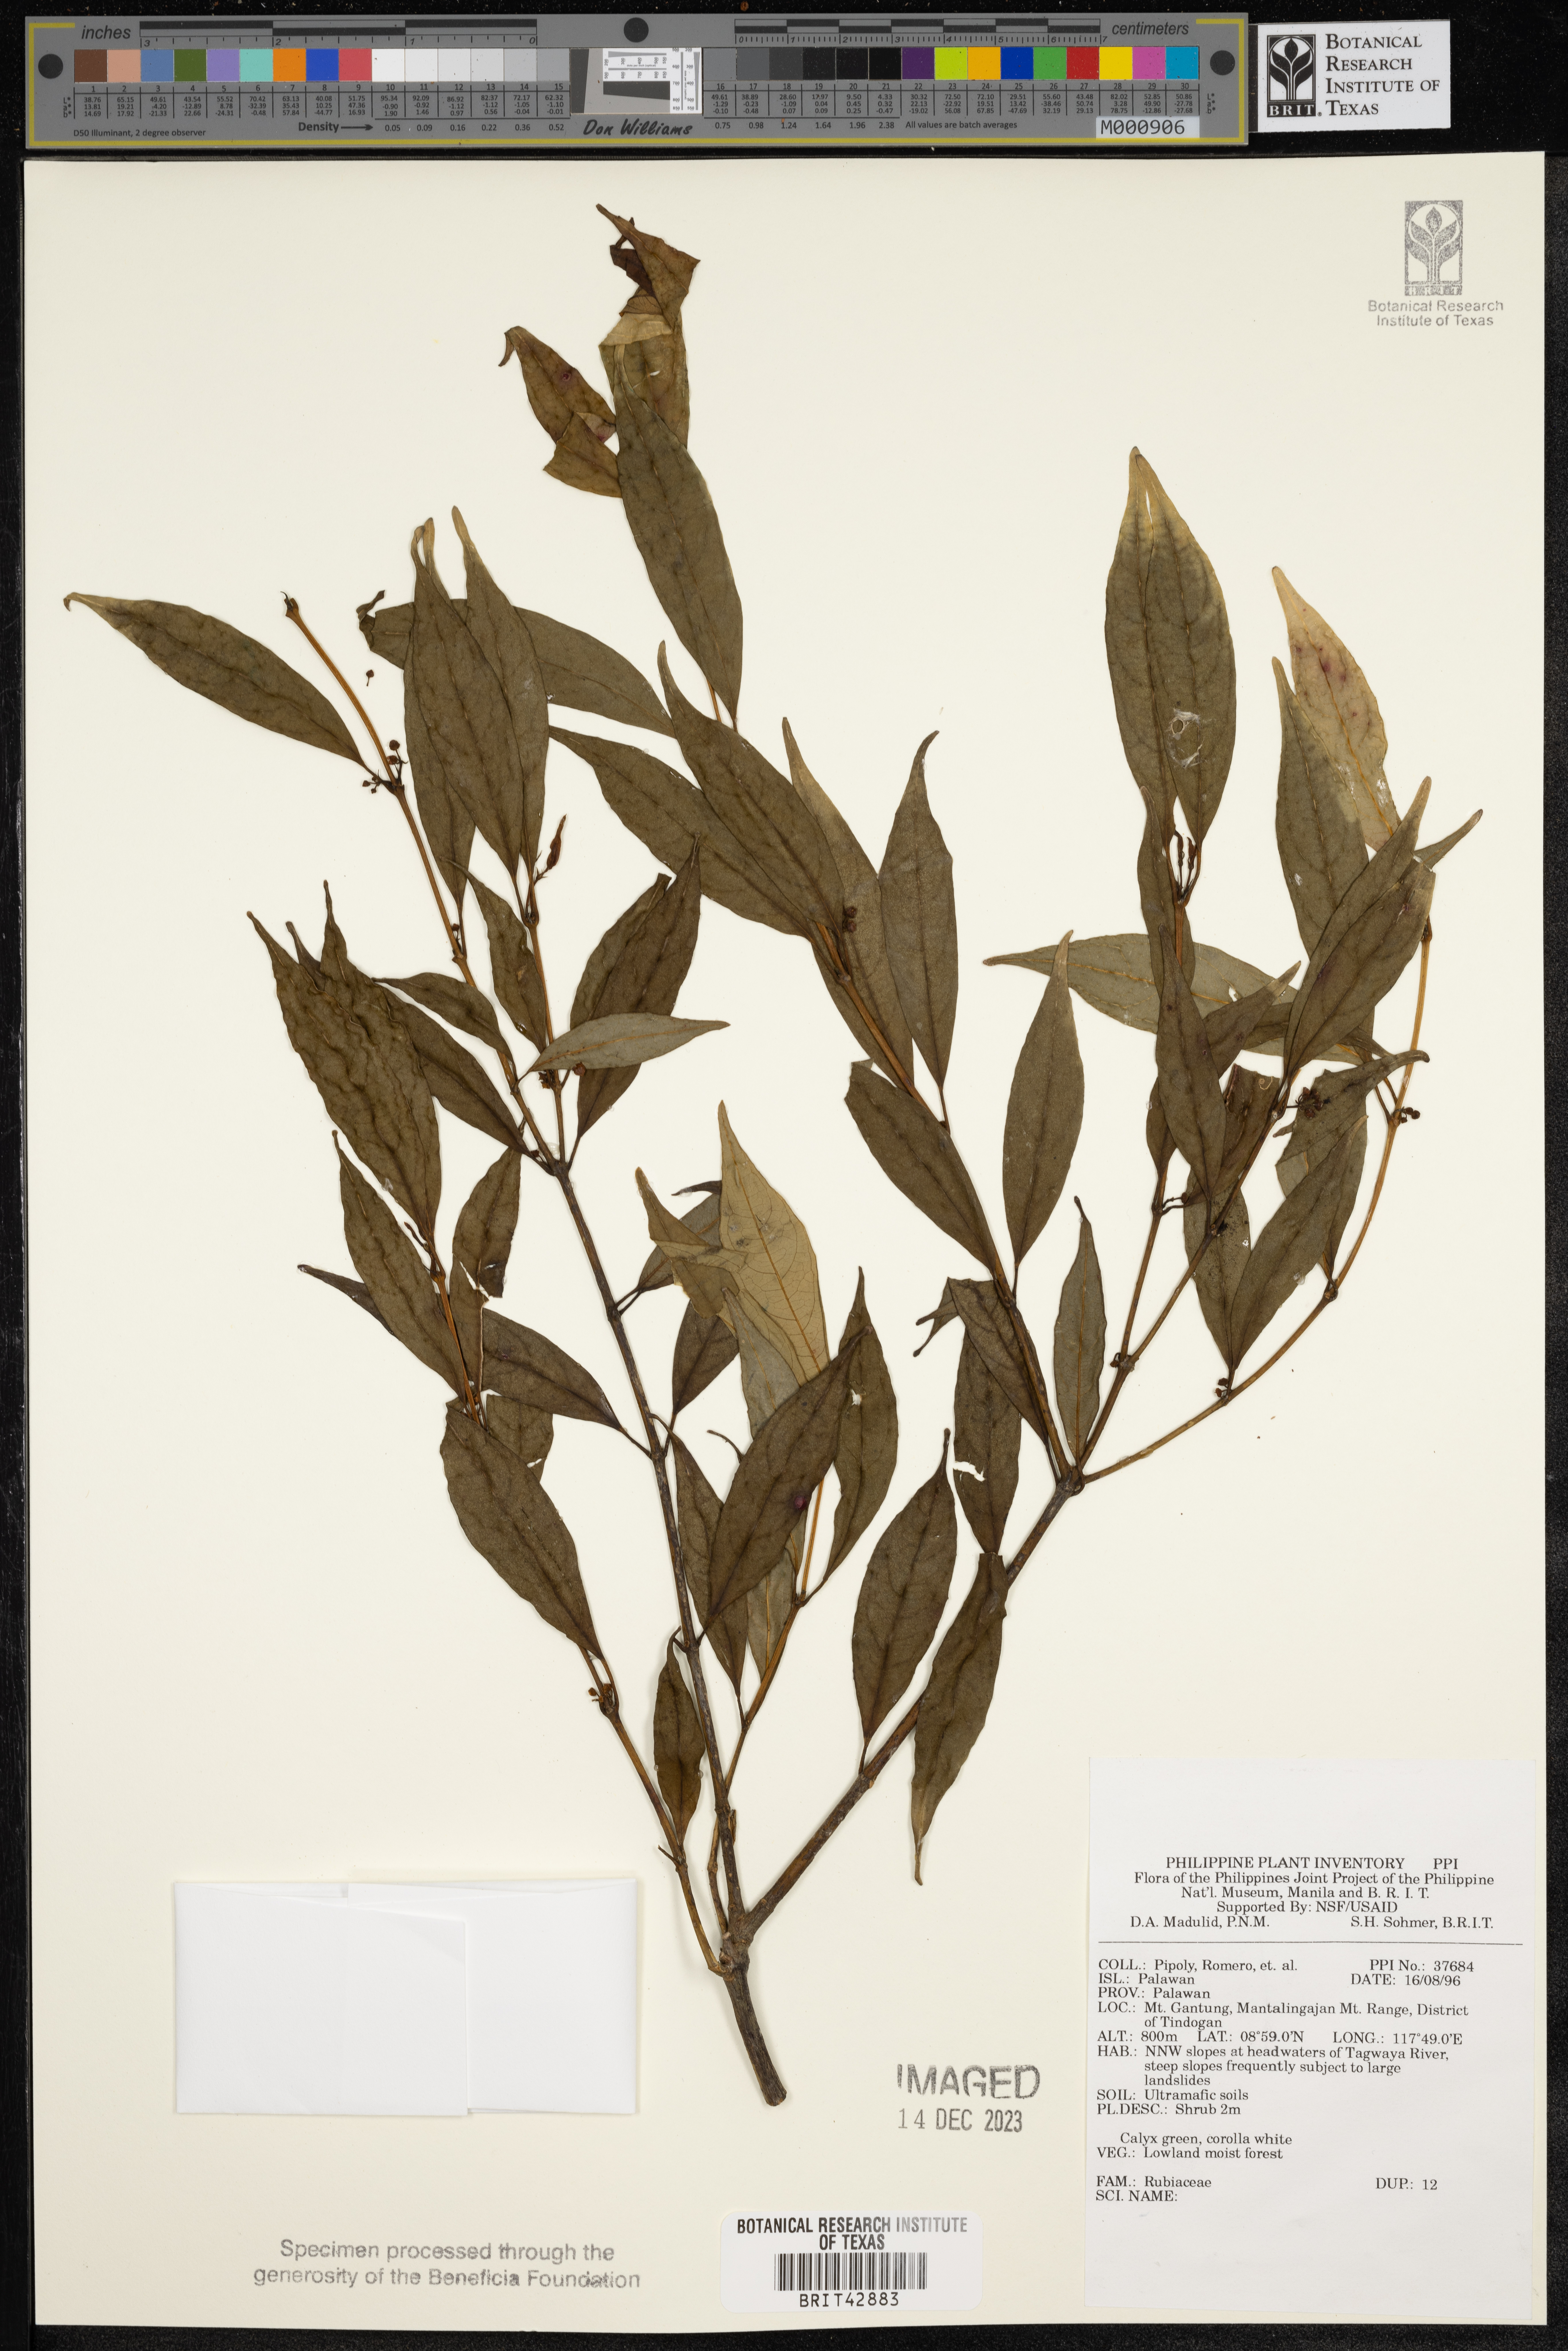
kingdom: Plantae
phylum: Tracheophyta
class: Magnoliopsida
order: Gentianales
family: Rubiaceae
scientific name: Rubiaceae
